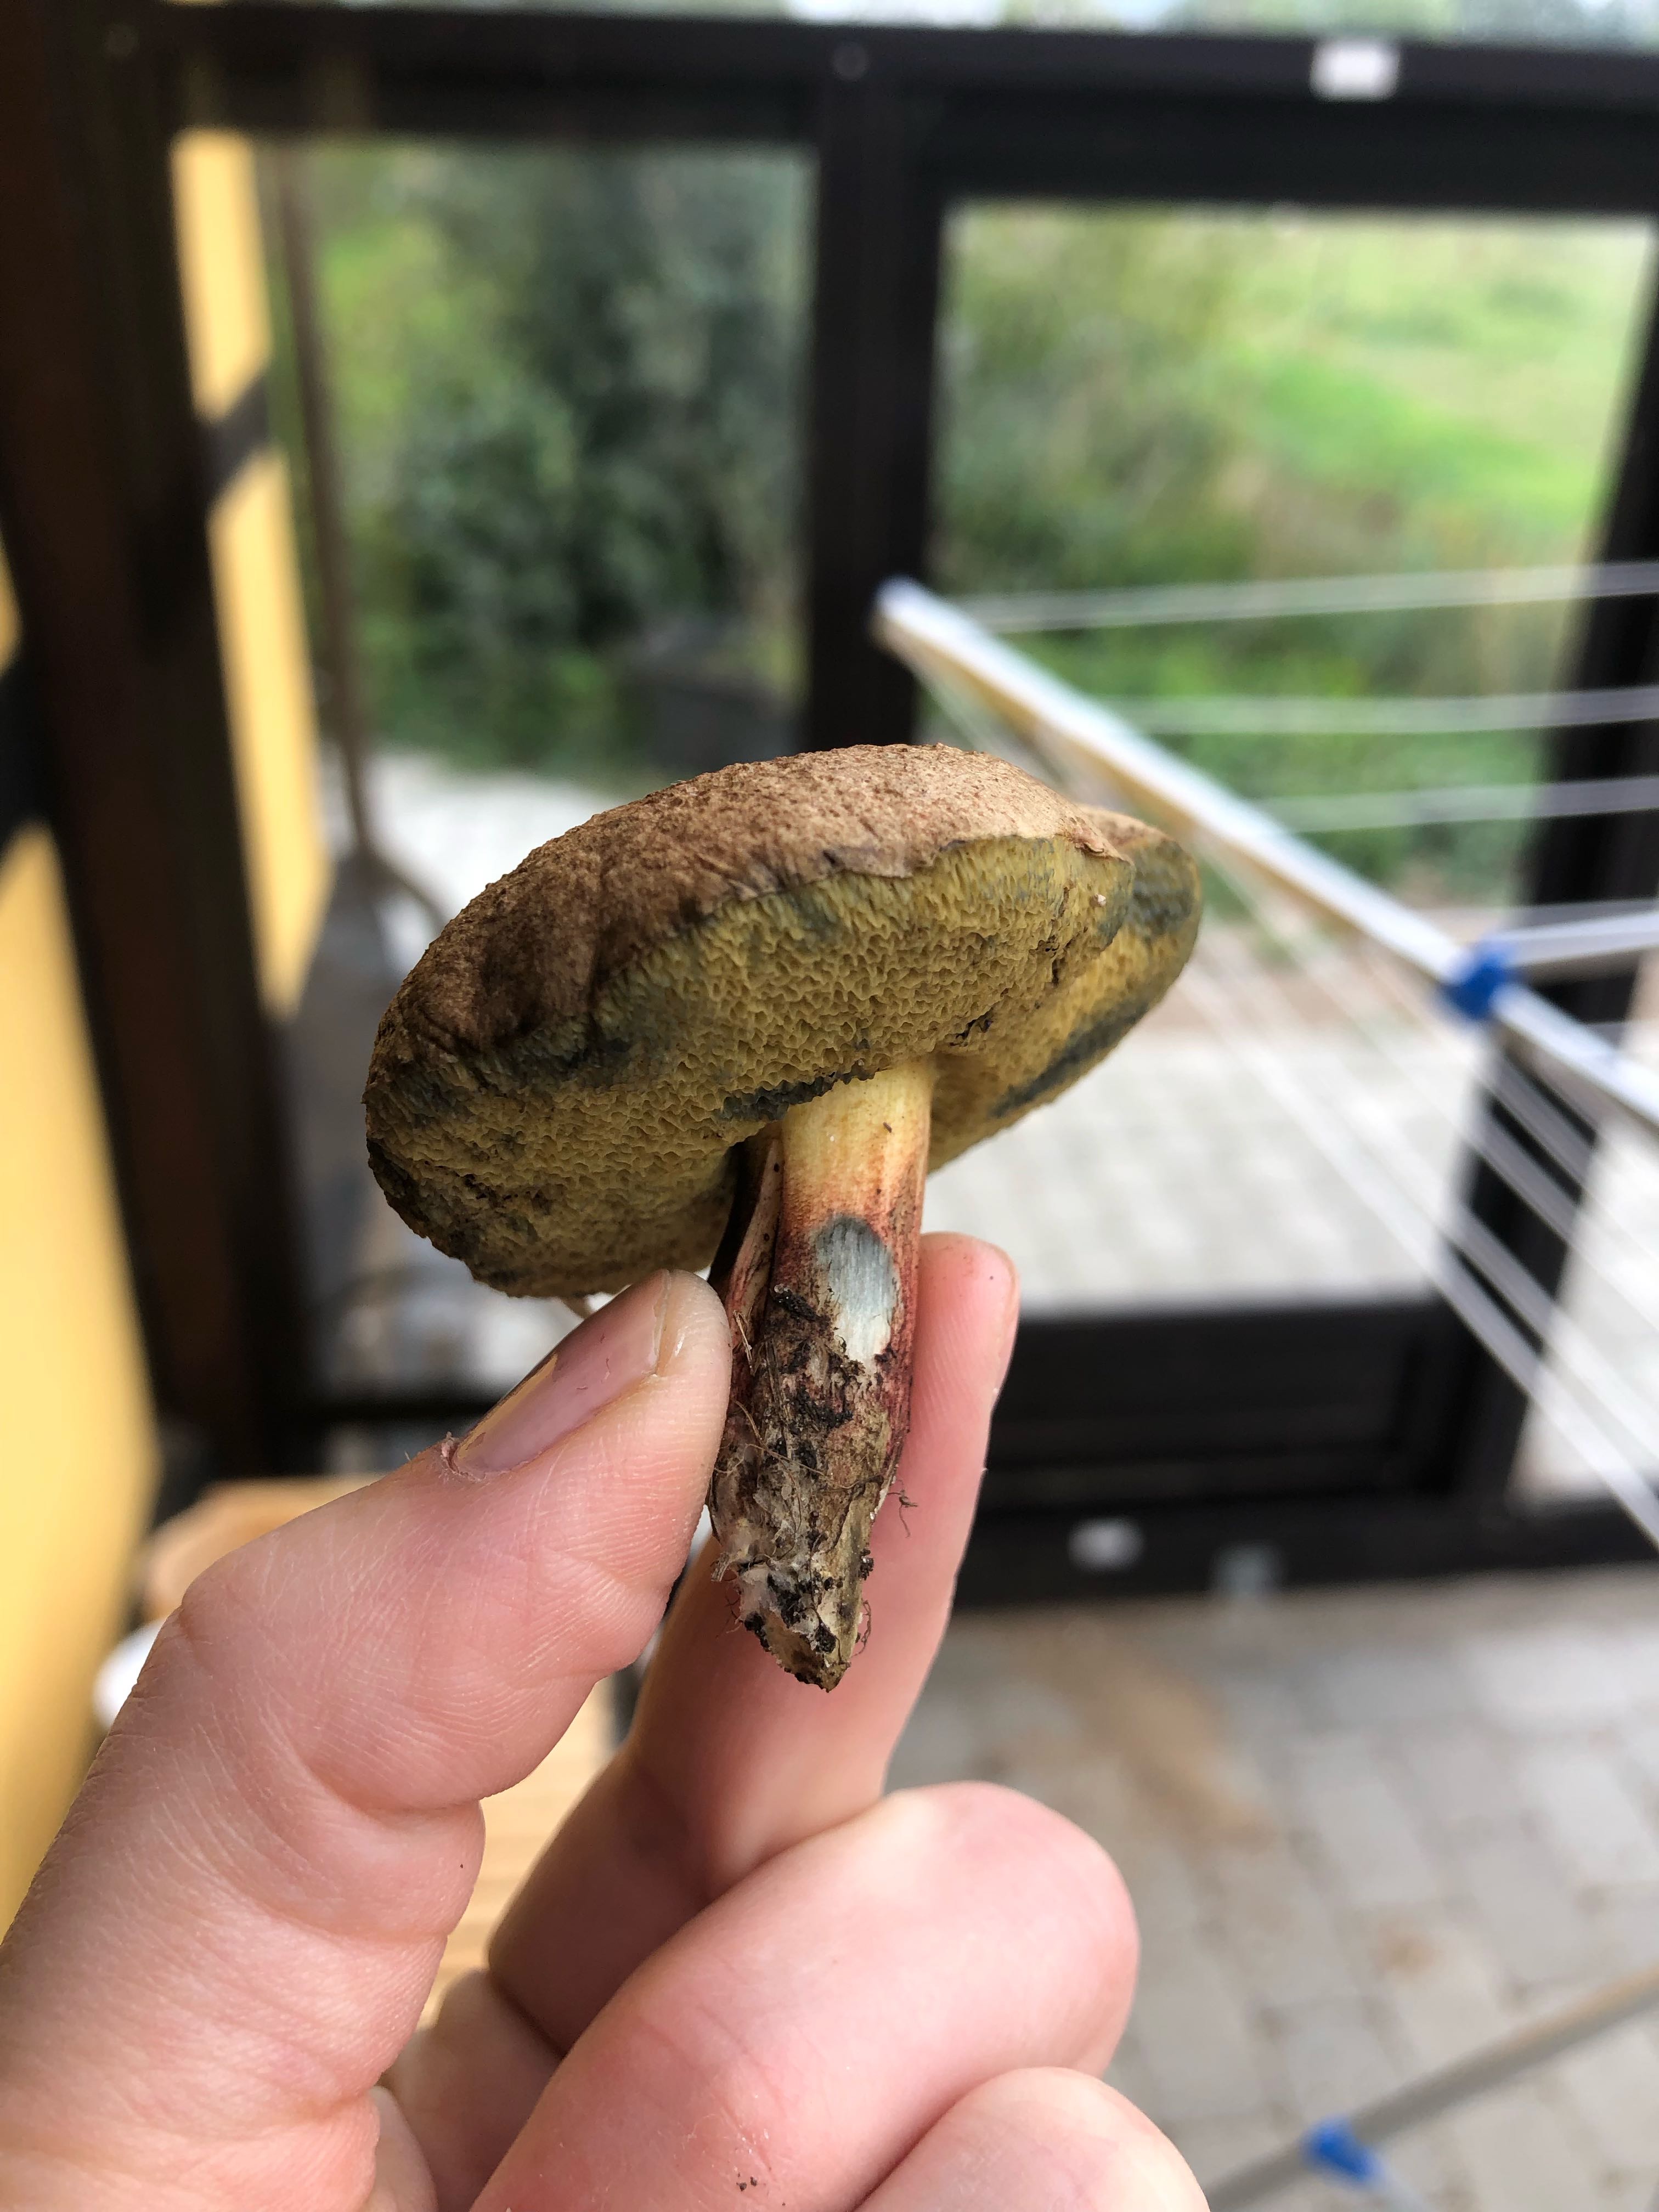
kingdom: Fungi
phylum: Basidiomycota
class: Agaricomycetes
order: Boletales
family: Boletaceae
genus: Xerocomellus
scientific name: Xerocomellus cisalpinus
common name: finsprukken rørhat
